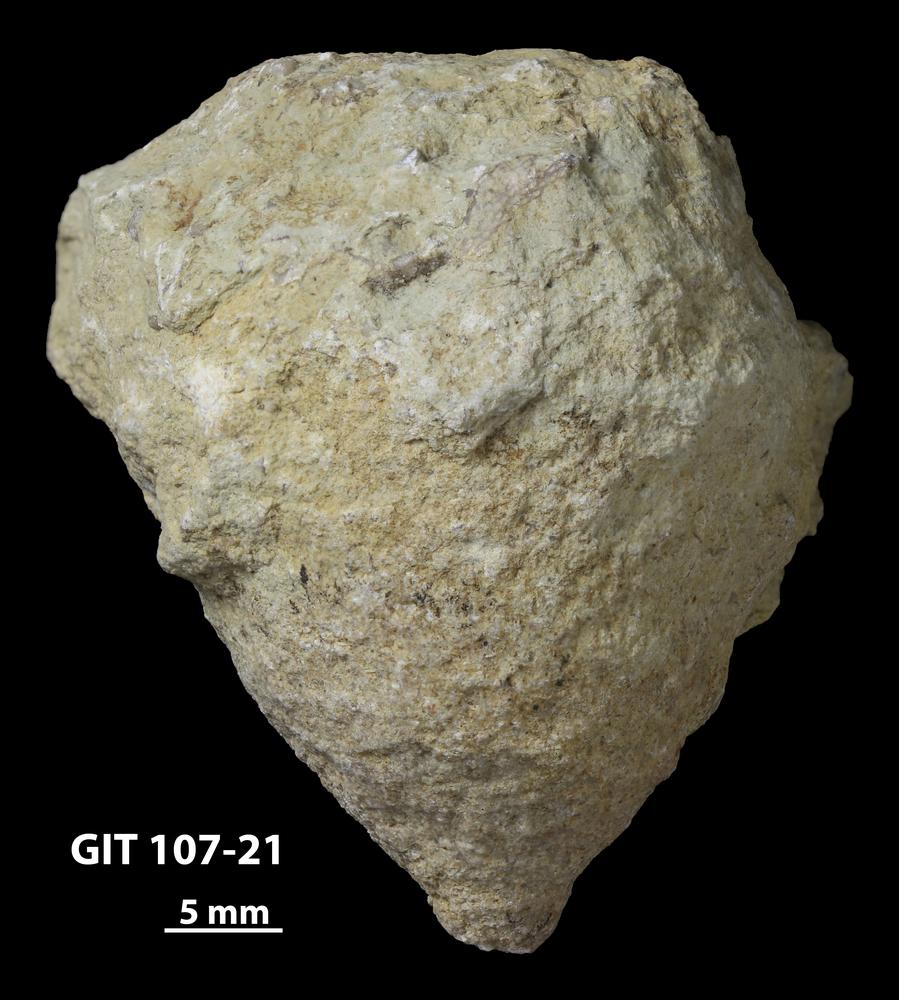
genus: Amphorichnus
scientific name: Amphorichnus
